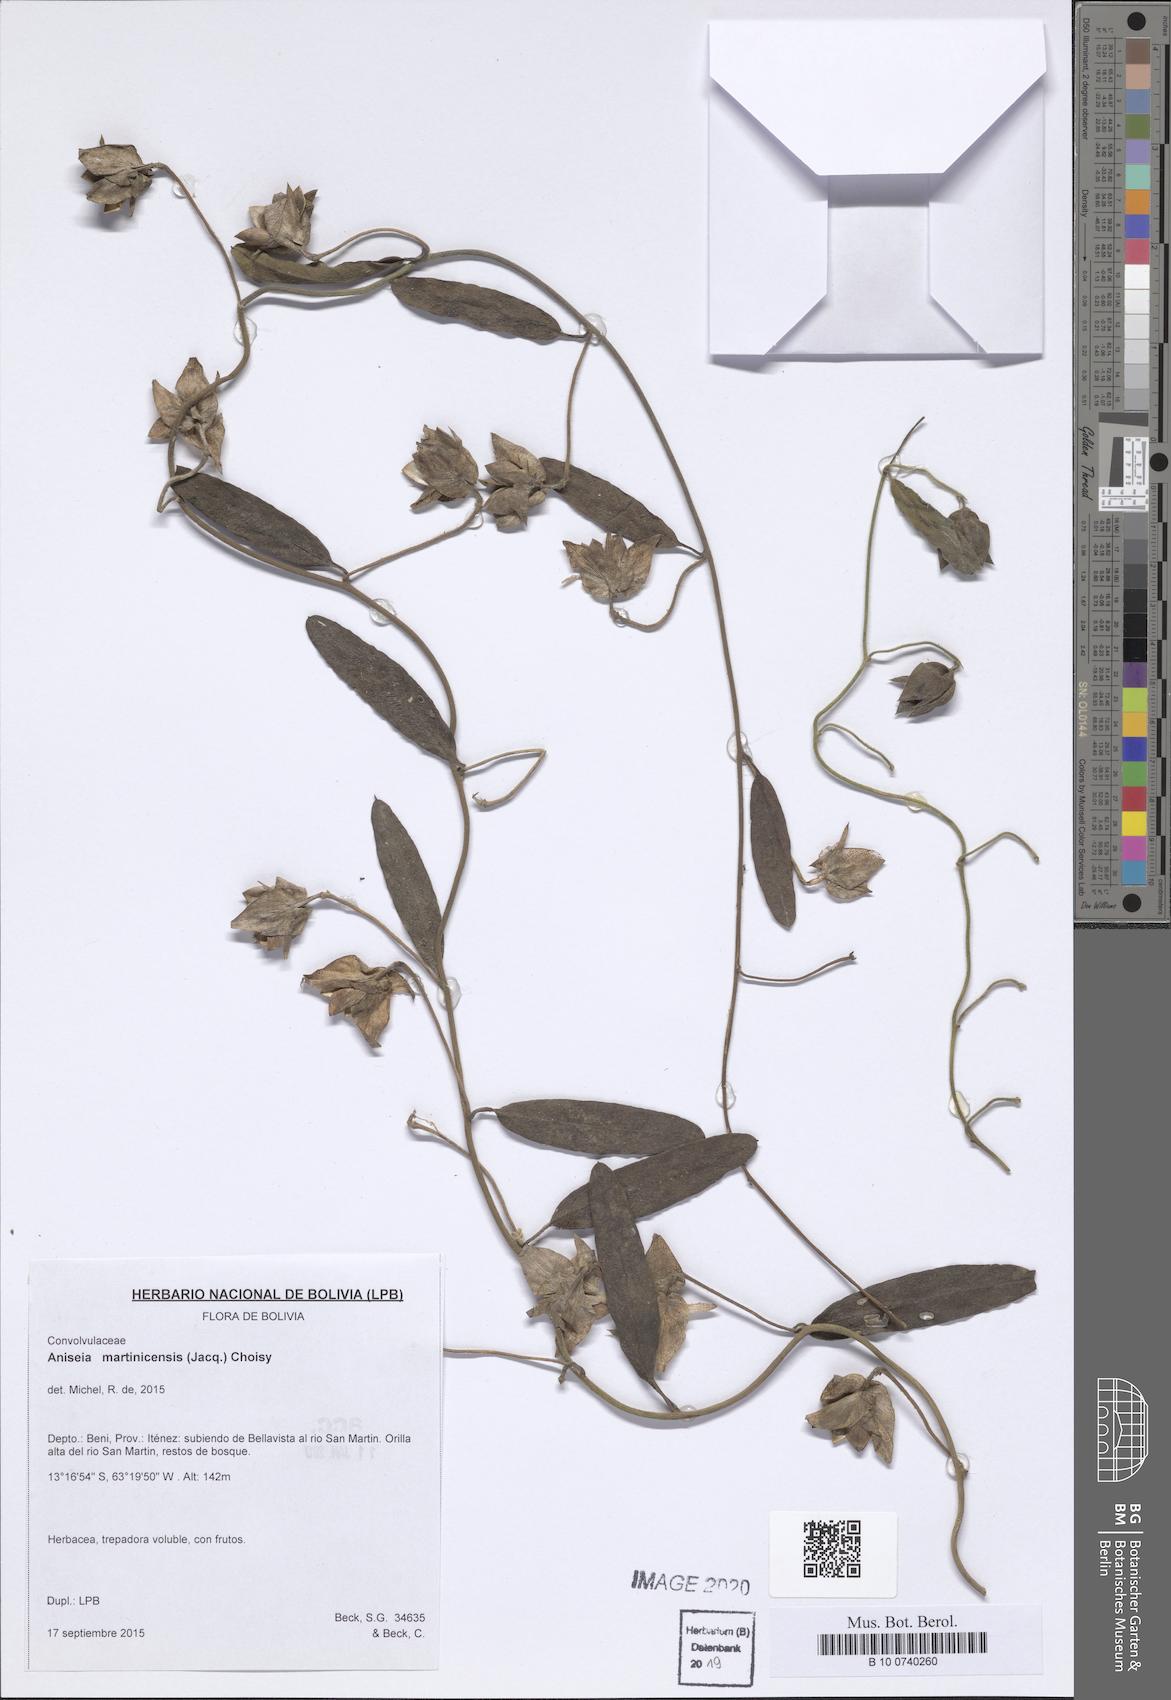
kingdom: Plantae
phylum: Tracheophyta
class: Magnoliopsida
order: Solanales
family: Convolvulaceae
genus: Aniseia
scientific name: Aniseia martinicensis
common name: Kulayadambu
